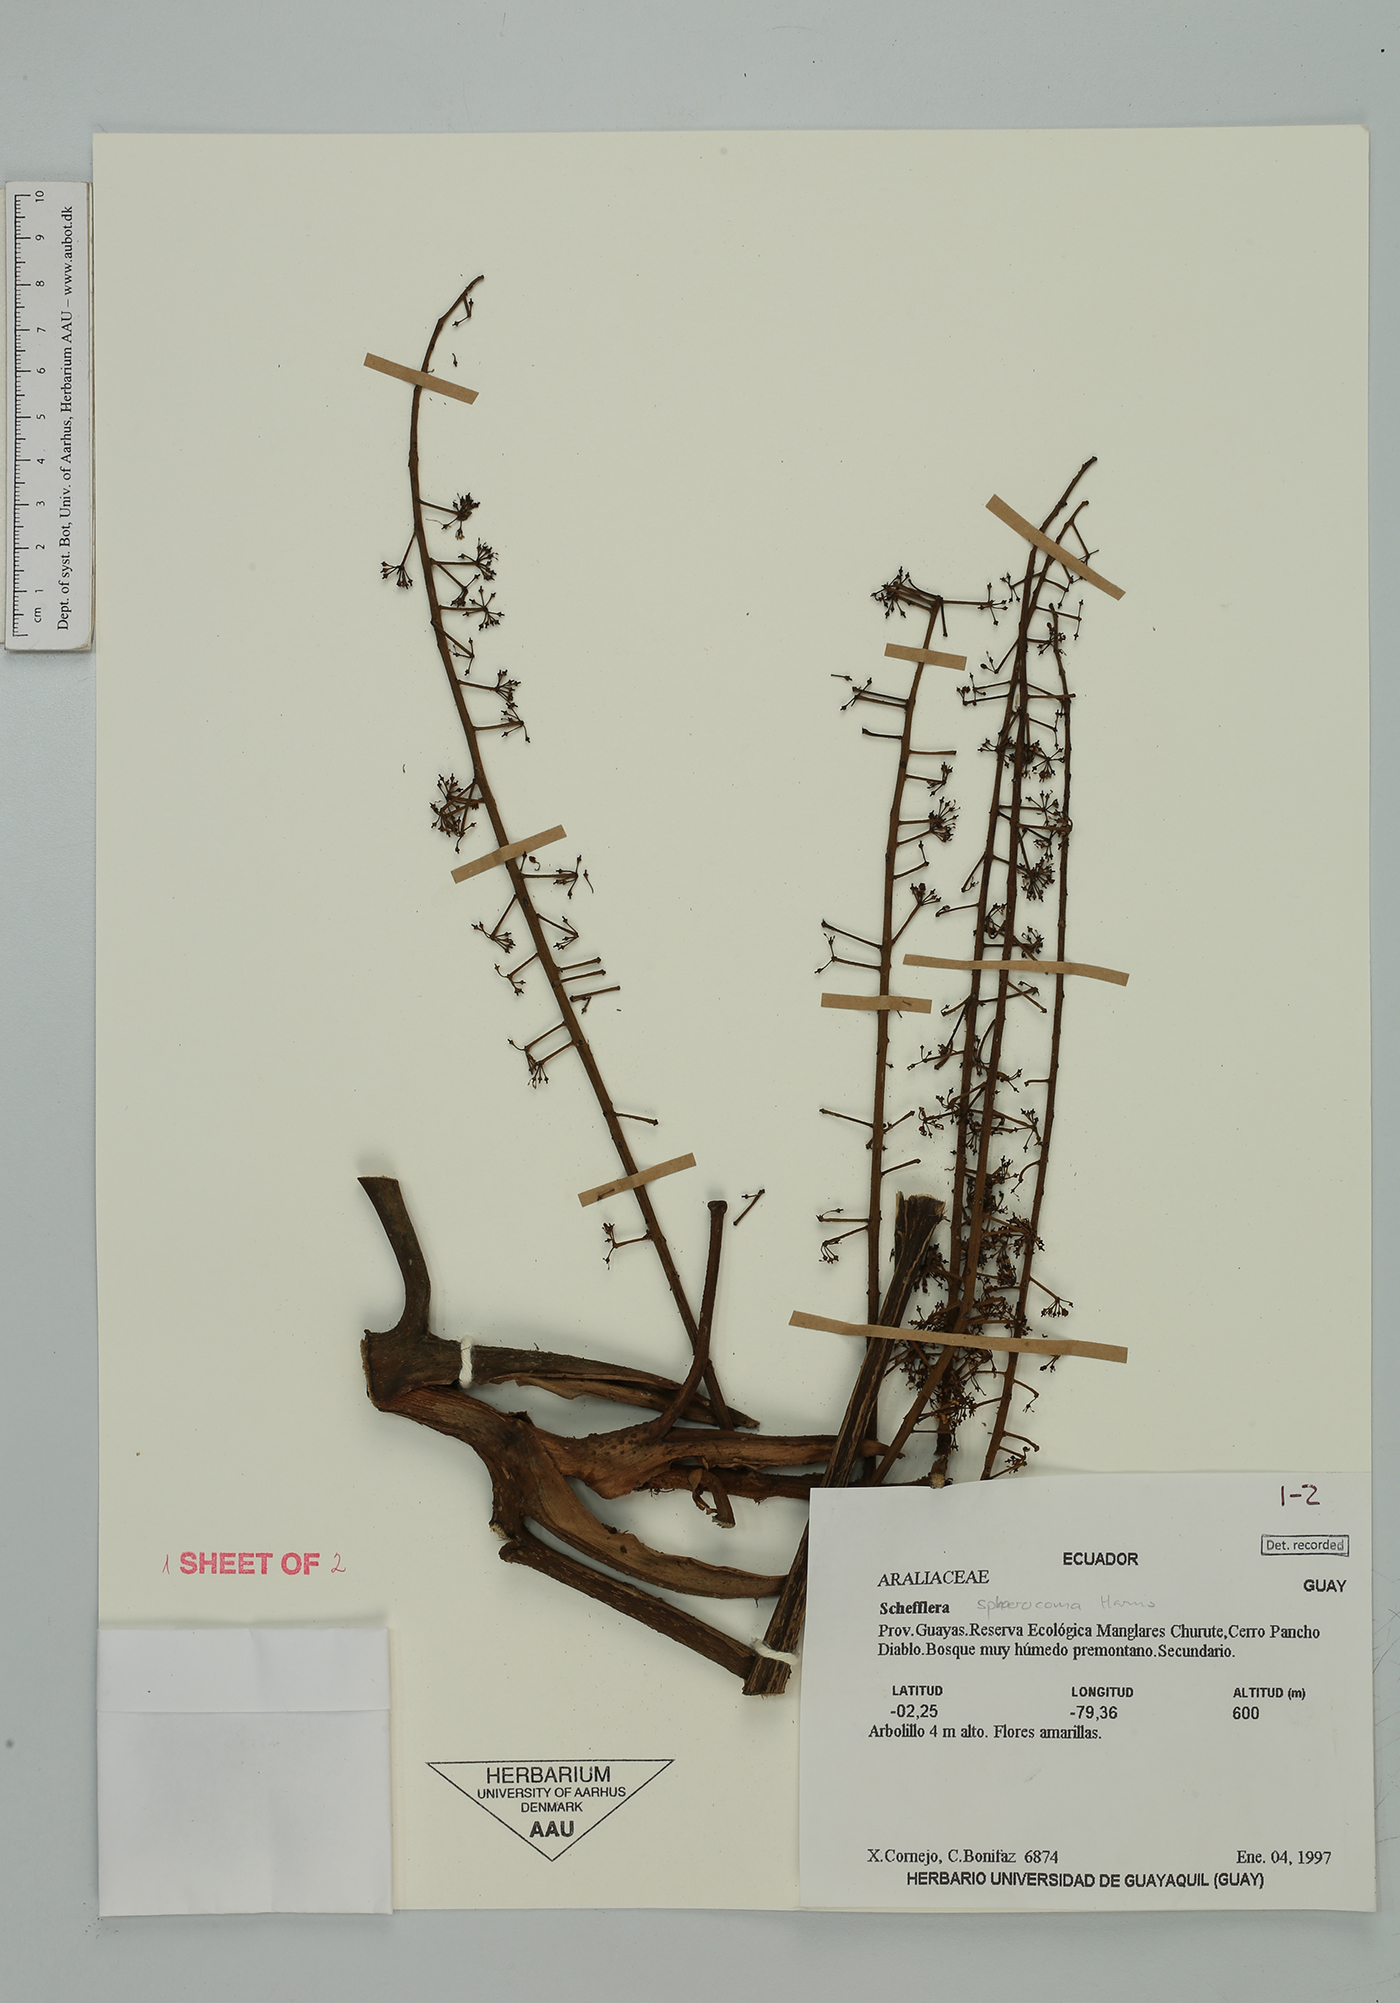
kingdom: Plantae
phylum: Tracheophyta
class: Magnoliopsida
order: Apiales
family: Araliaceae
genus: Sciodaphyllum
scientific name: Sciodaphyllum sphaerocoma
